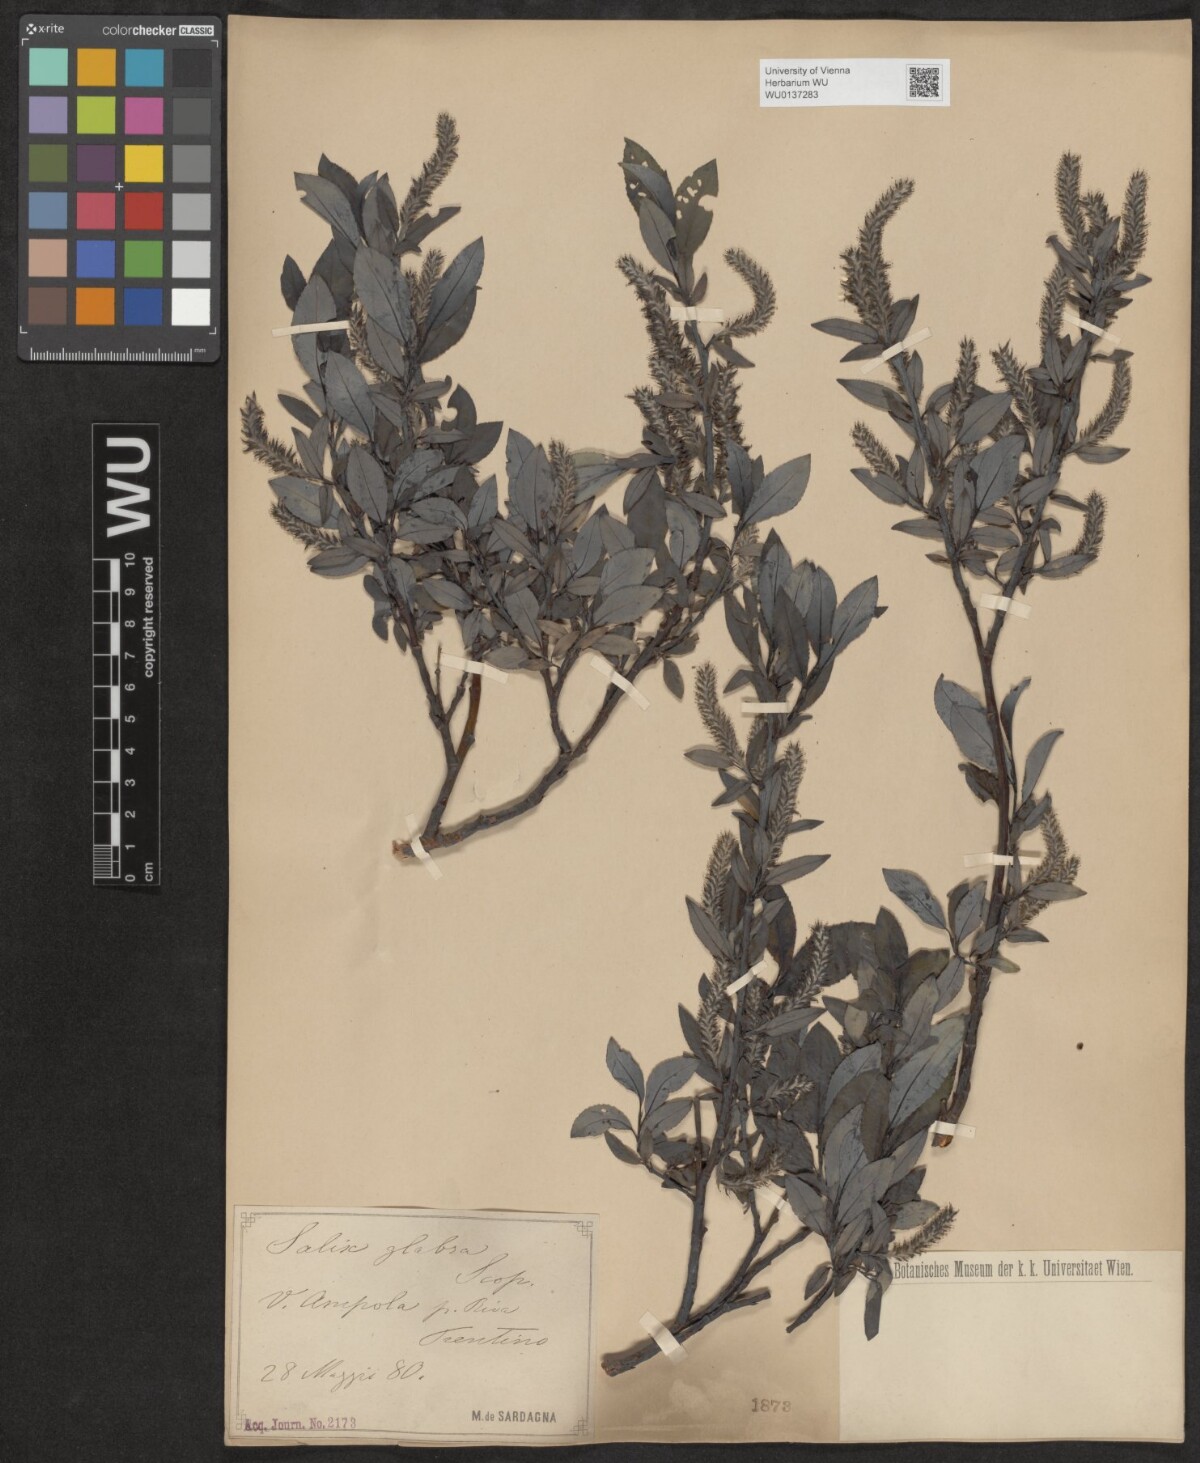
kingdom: Plantae
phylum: Tracheophyta
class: Magnoliopsida
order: Malpighiales
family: Salicaceae
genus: Salix
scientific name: Salix glabra
